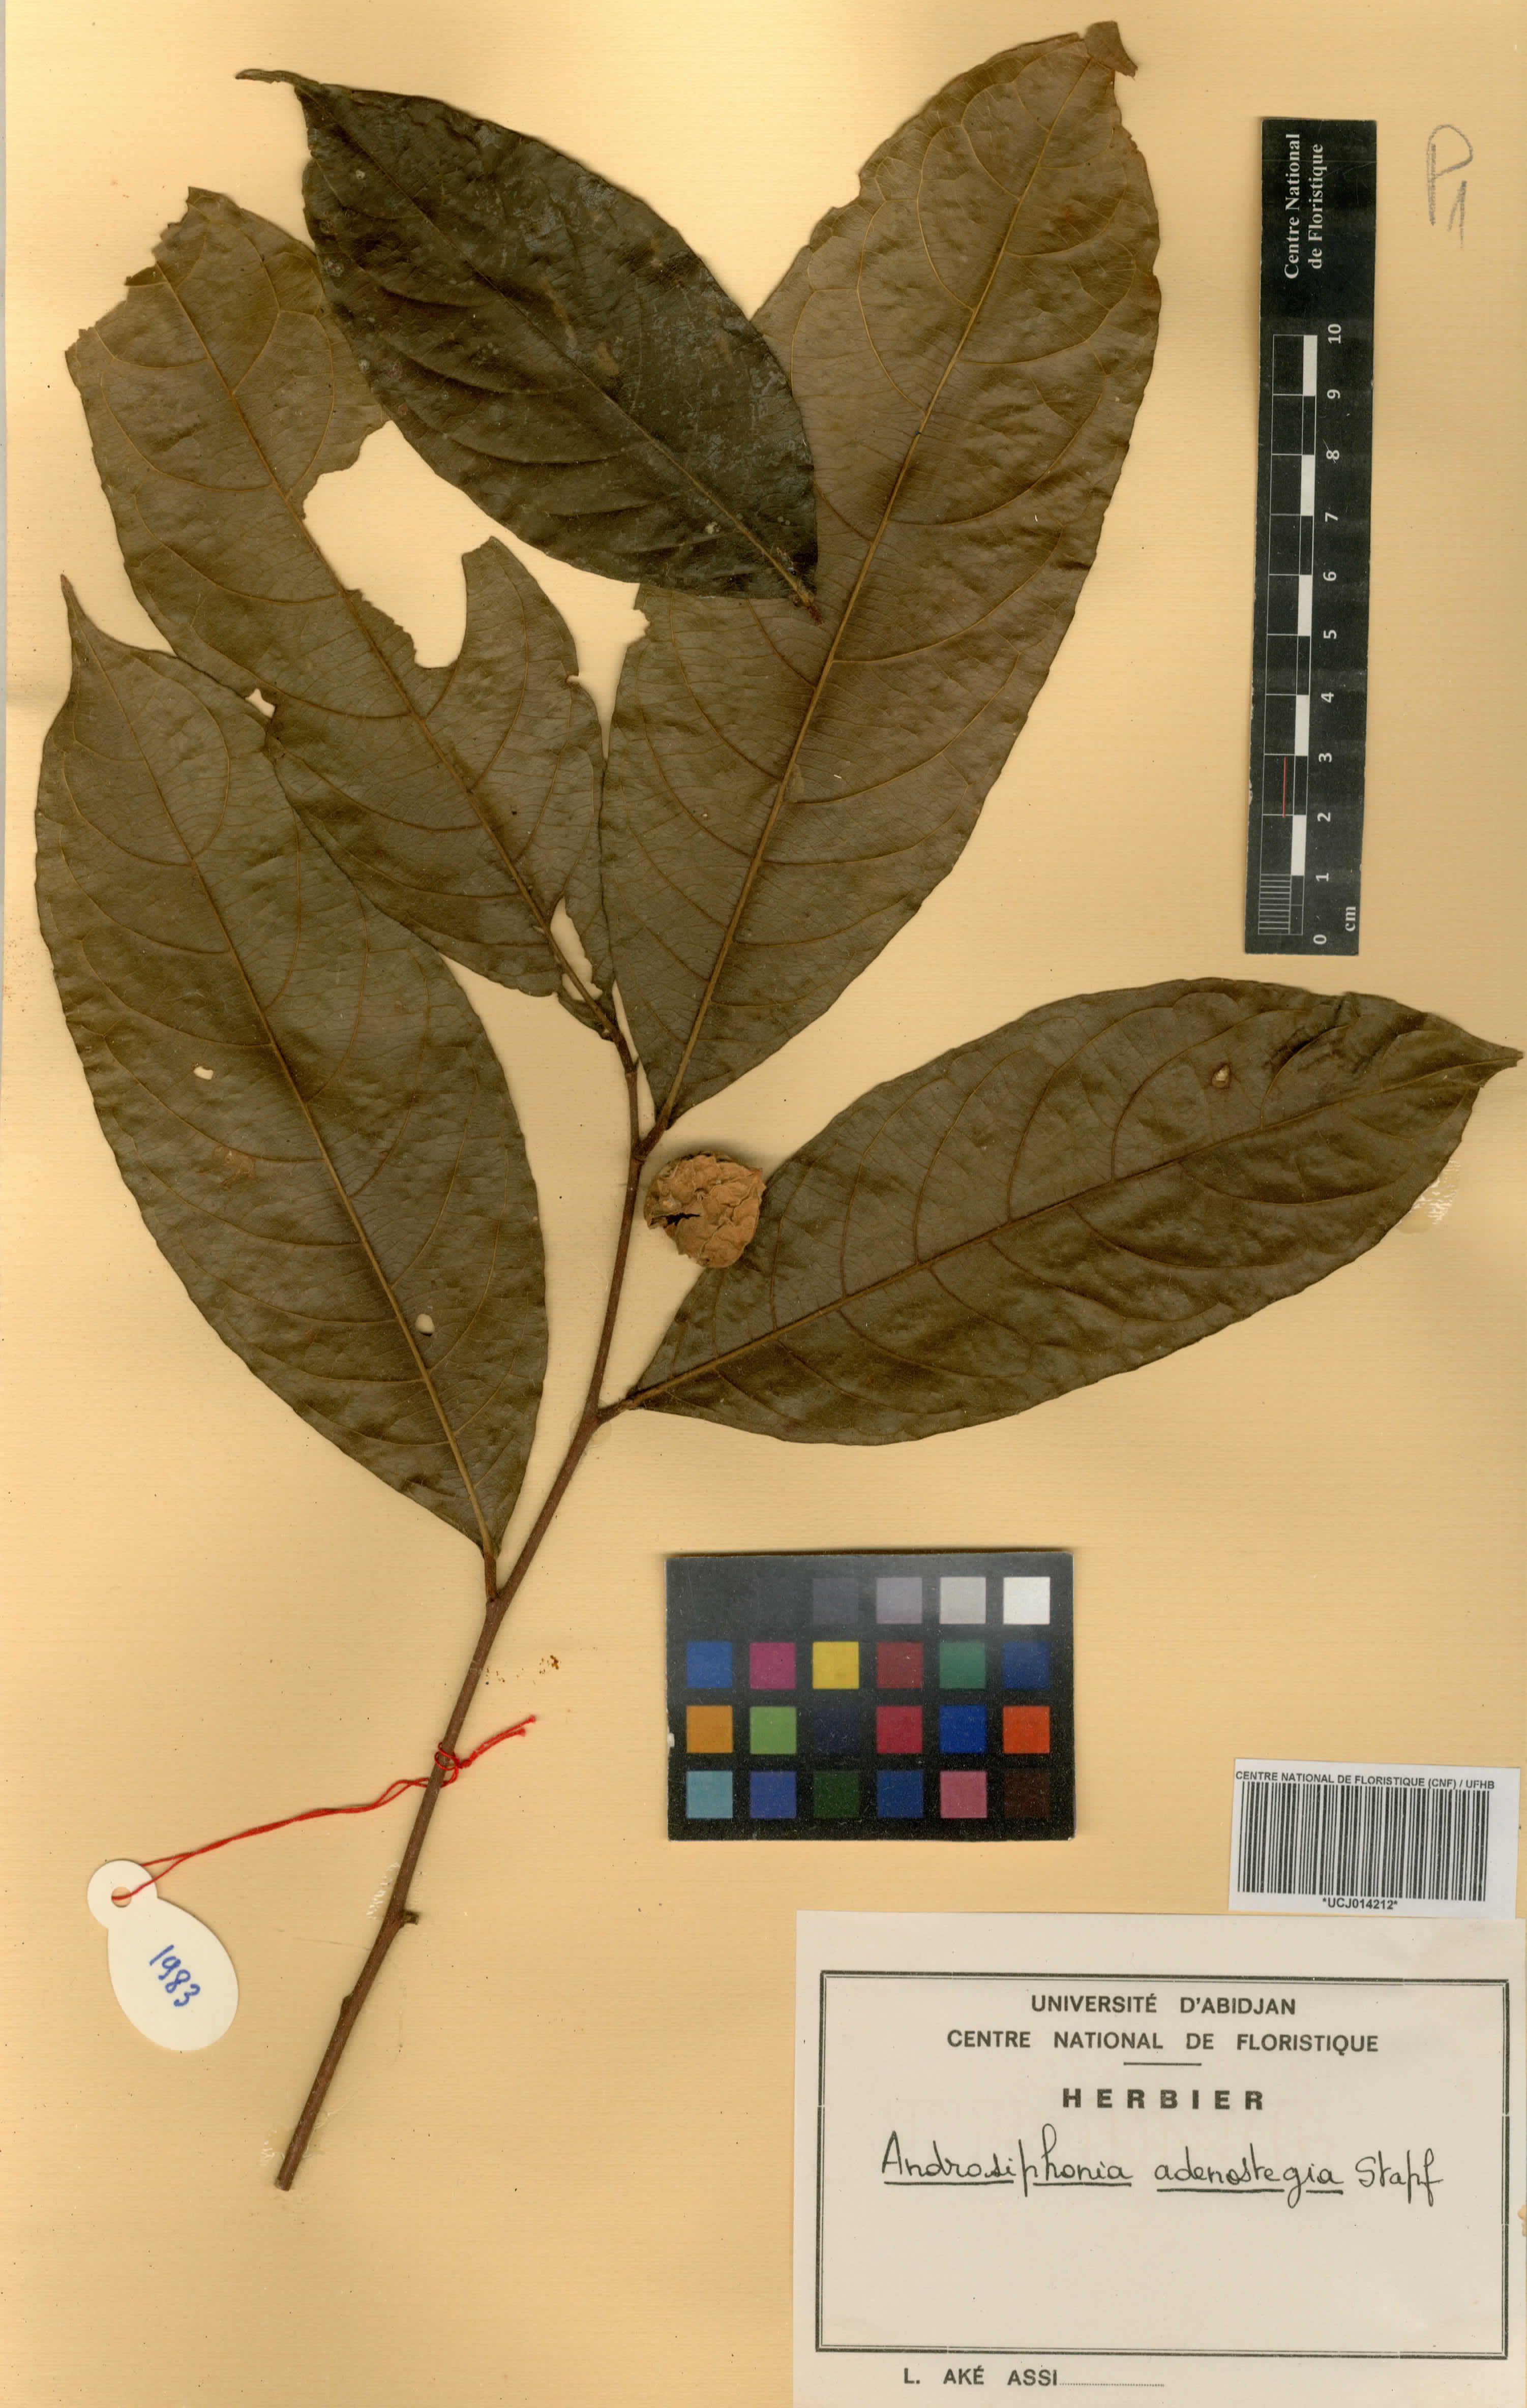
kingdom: Plantae
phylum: Tracheophyta
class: Magnoliopsida
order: Malpighiales
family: Passifloraceae
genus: Androsiphonia
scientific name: Androsiphonia adenostegia
